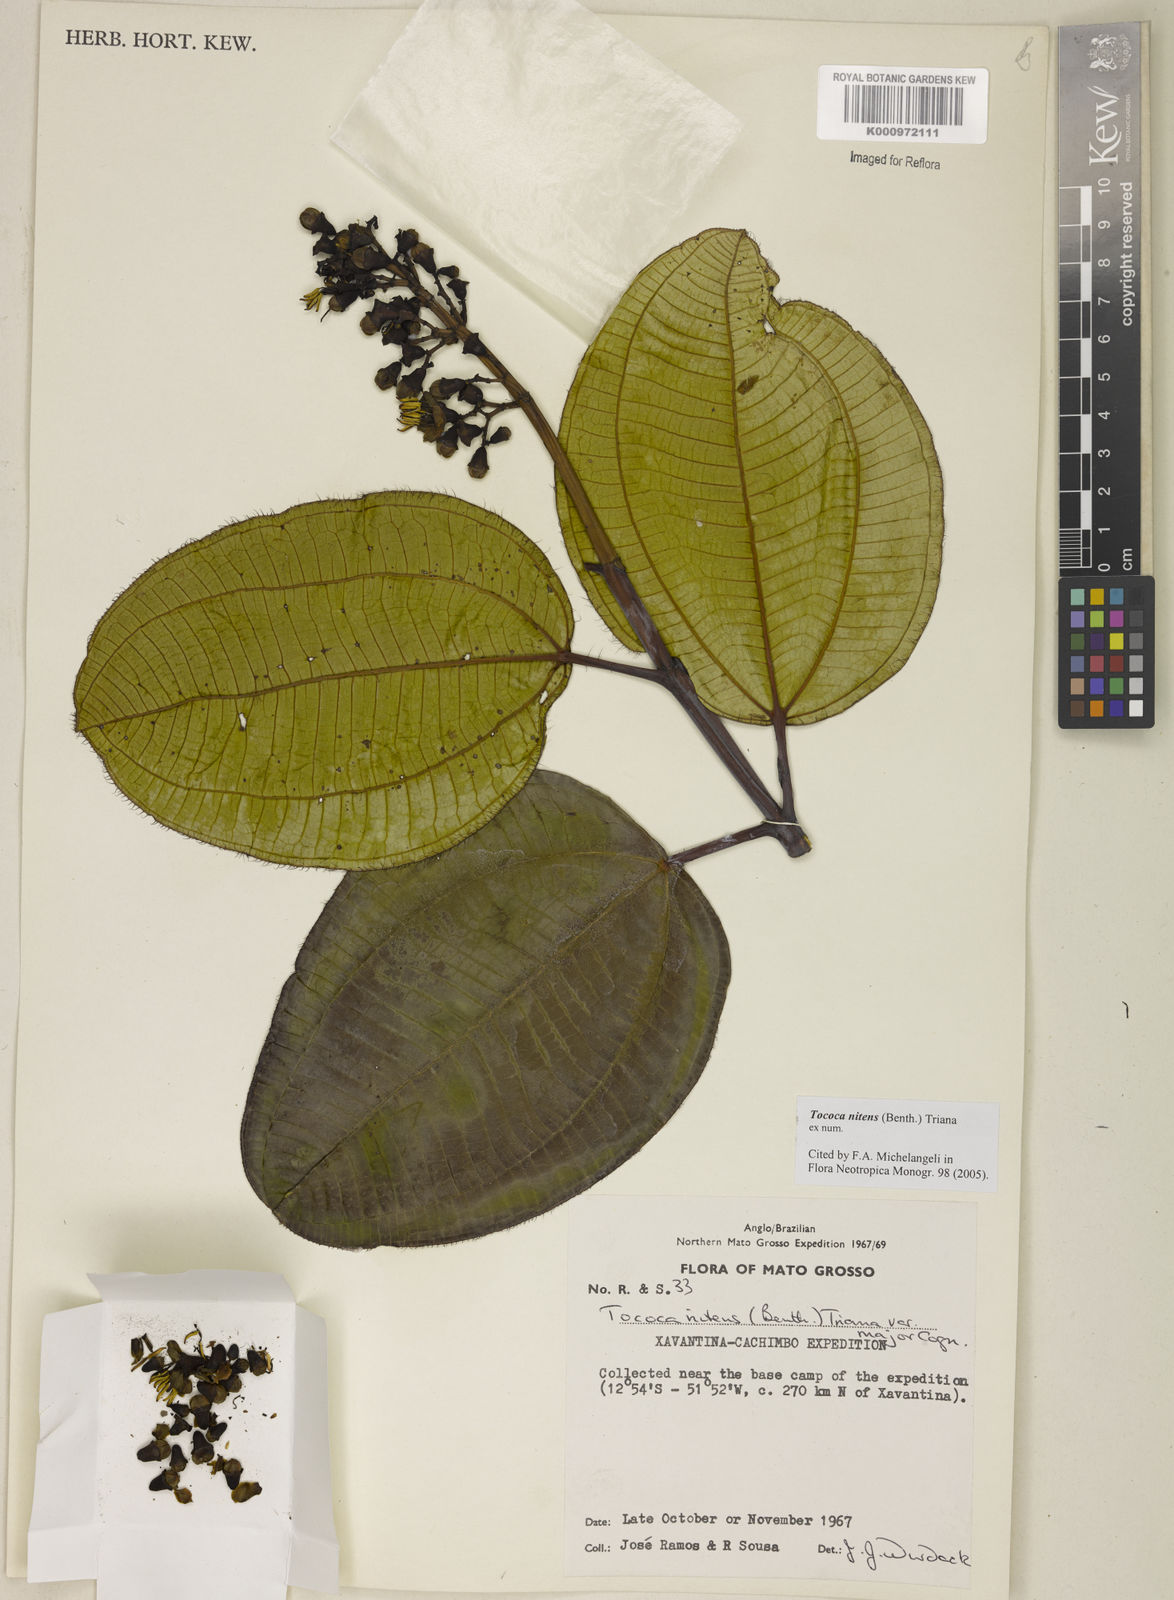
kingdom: Plantae
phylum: Tracheophyta
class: Magnoliopsida
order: Myrtales
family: Melastomataceae
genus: Miconia
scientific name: Miconia nitens
